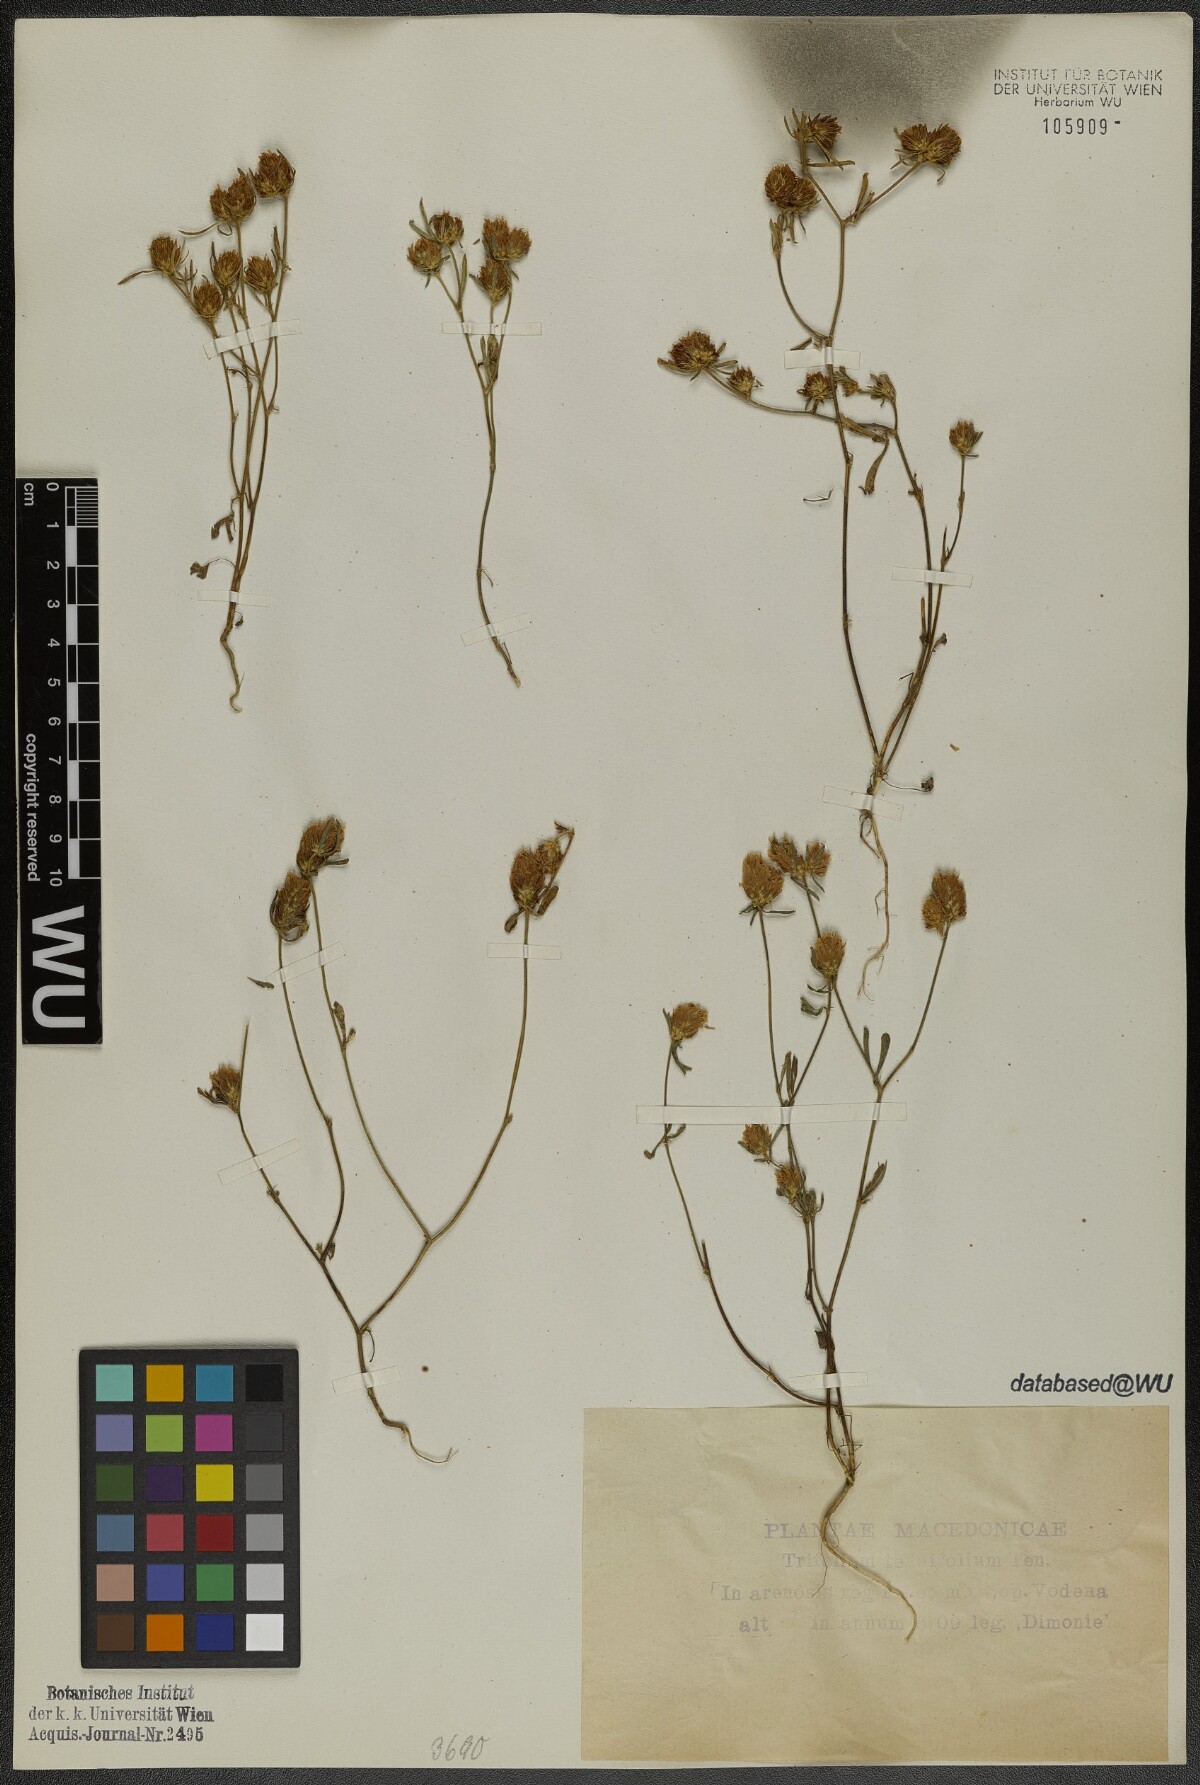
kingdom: Plantae
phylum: Tracheophyta
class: Magnoliopsida
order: Fabales
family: Fabaceae
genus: Trifolium
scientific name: Trifolium tenuifolium
